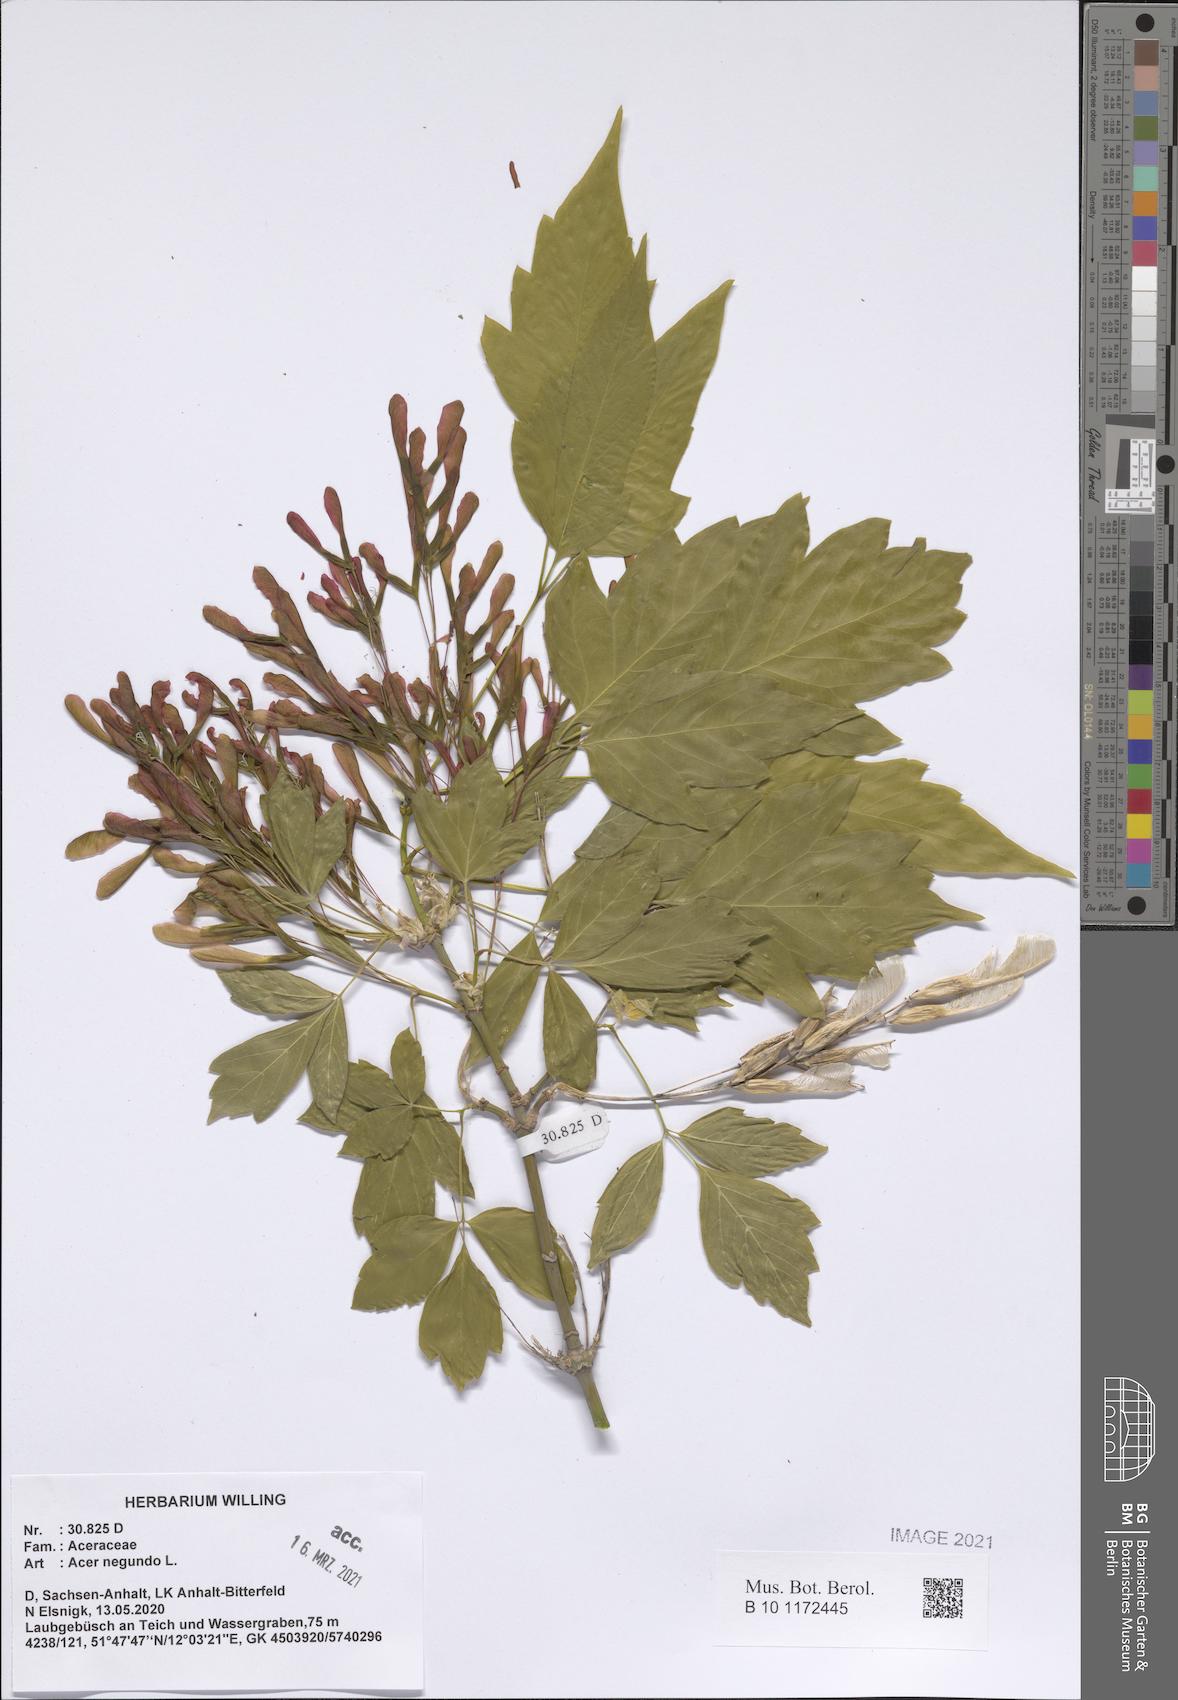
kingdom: Plantae
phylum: Tracheophyta
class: Magnoliopsida
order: Sapindales
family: Sapindaceae
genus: Acer
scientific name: Acer negundo
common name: Ashleaf maple
